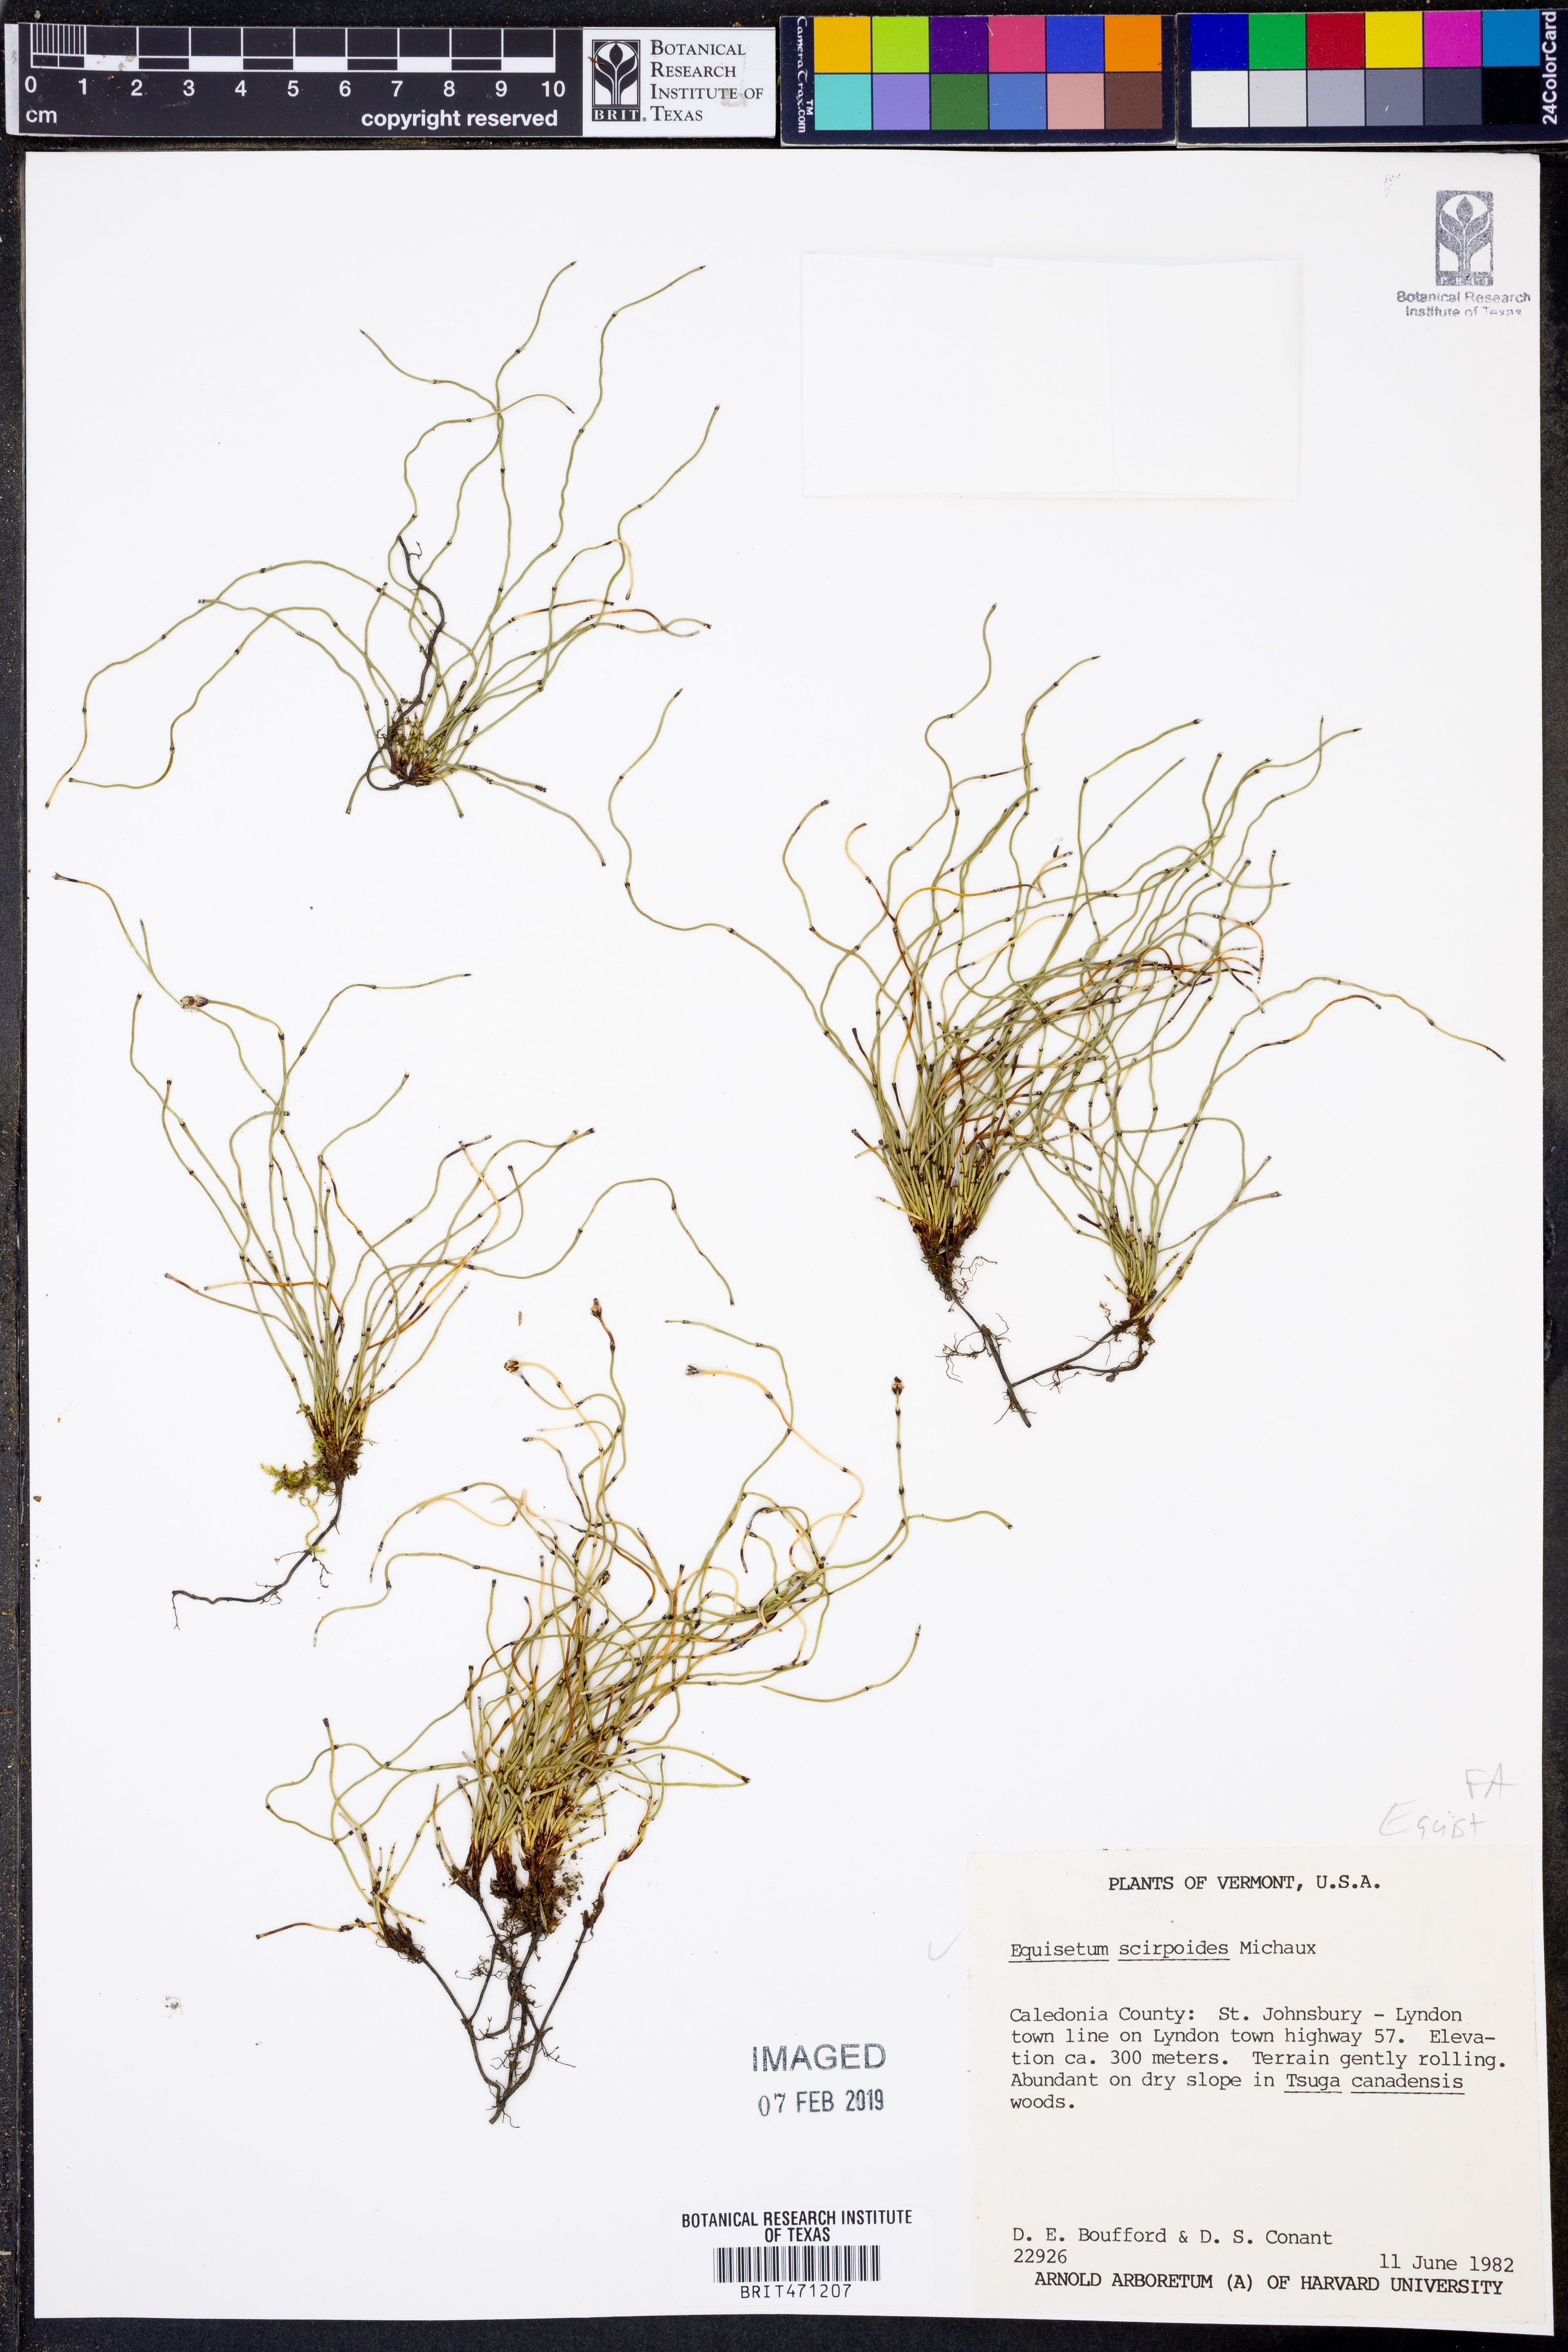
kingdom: Plantae
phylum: Tracheophyta
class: Polypodiopsida
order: Equisetales
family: Equisetaceae
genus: Equisetum
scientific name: Equisetum scirpoides
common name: Delicate horsetail
